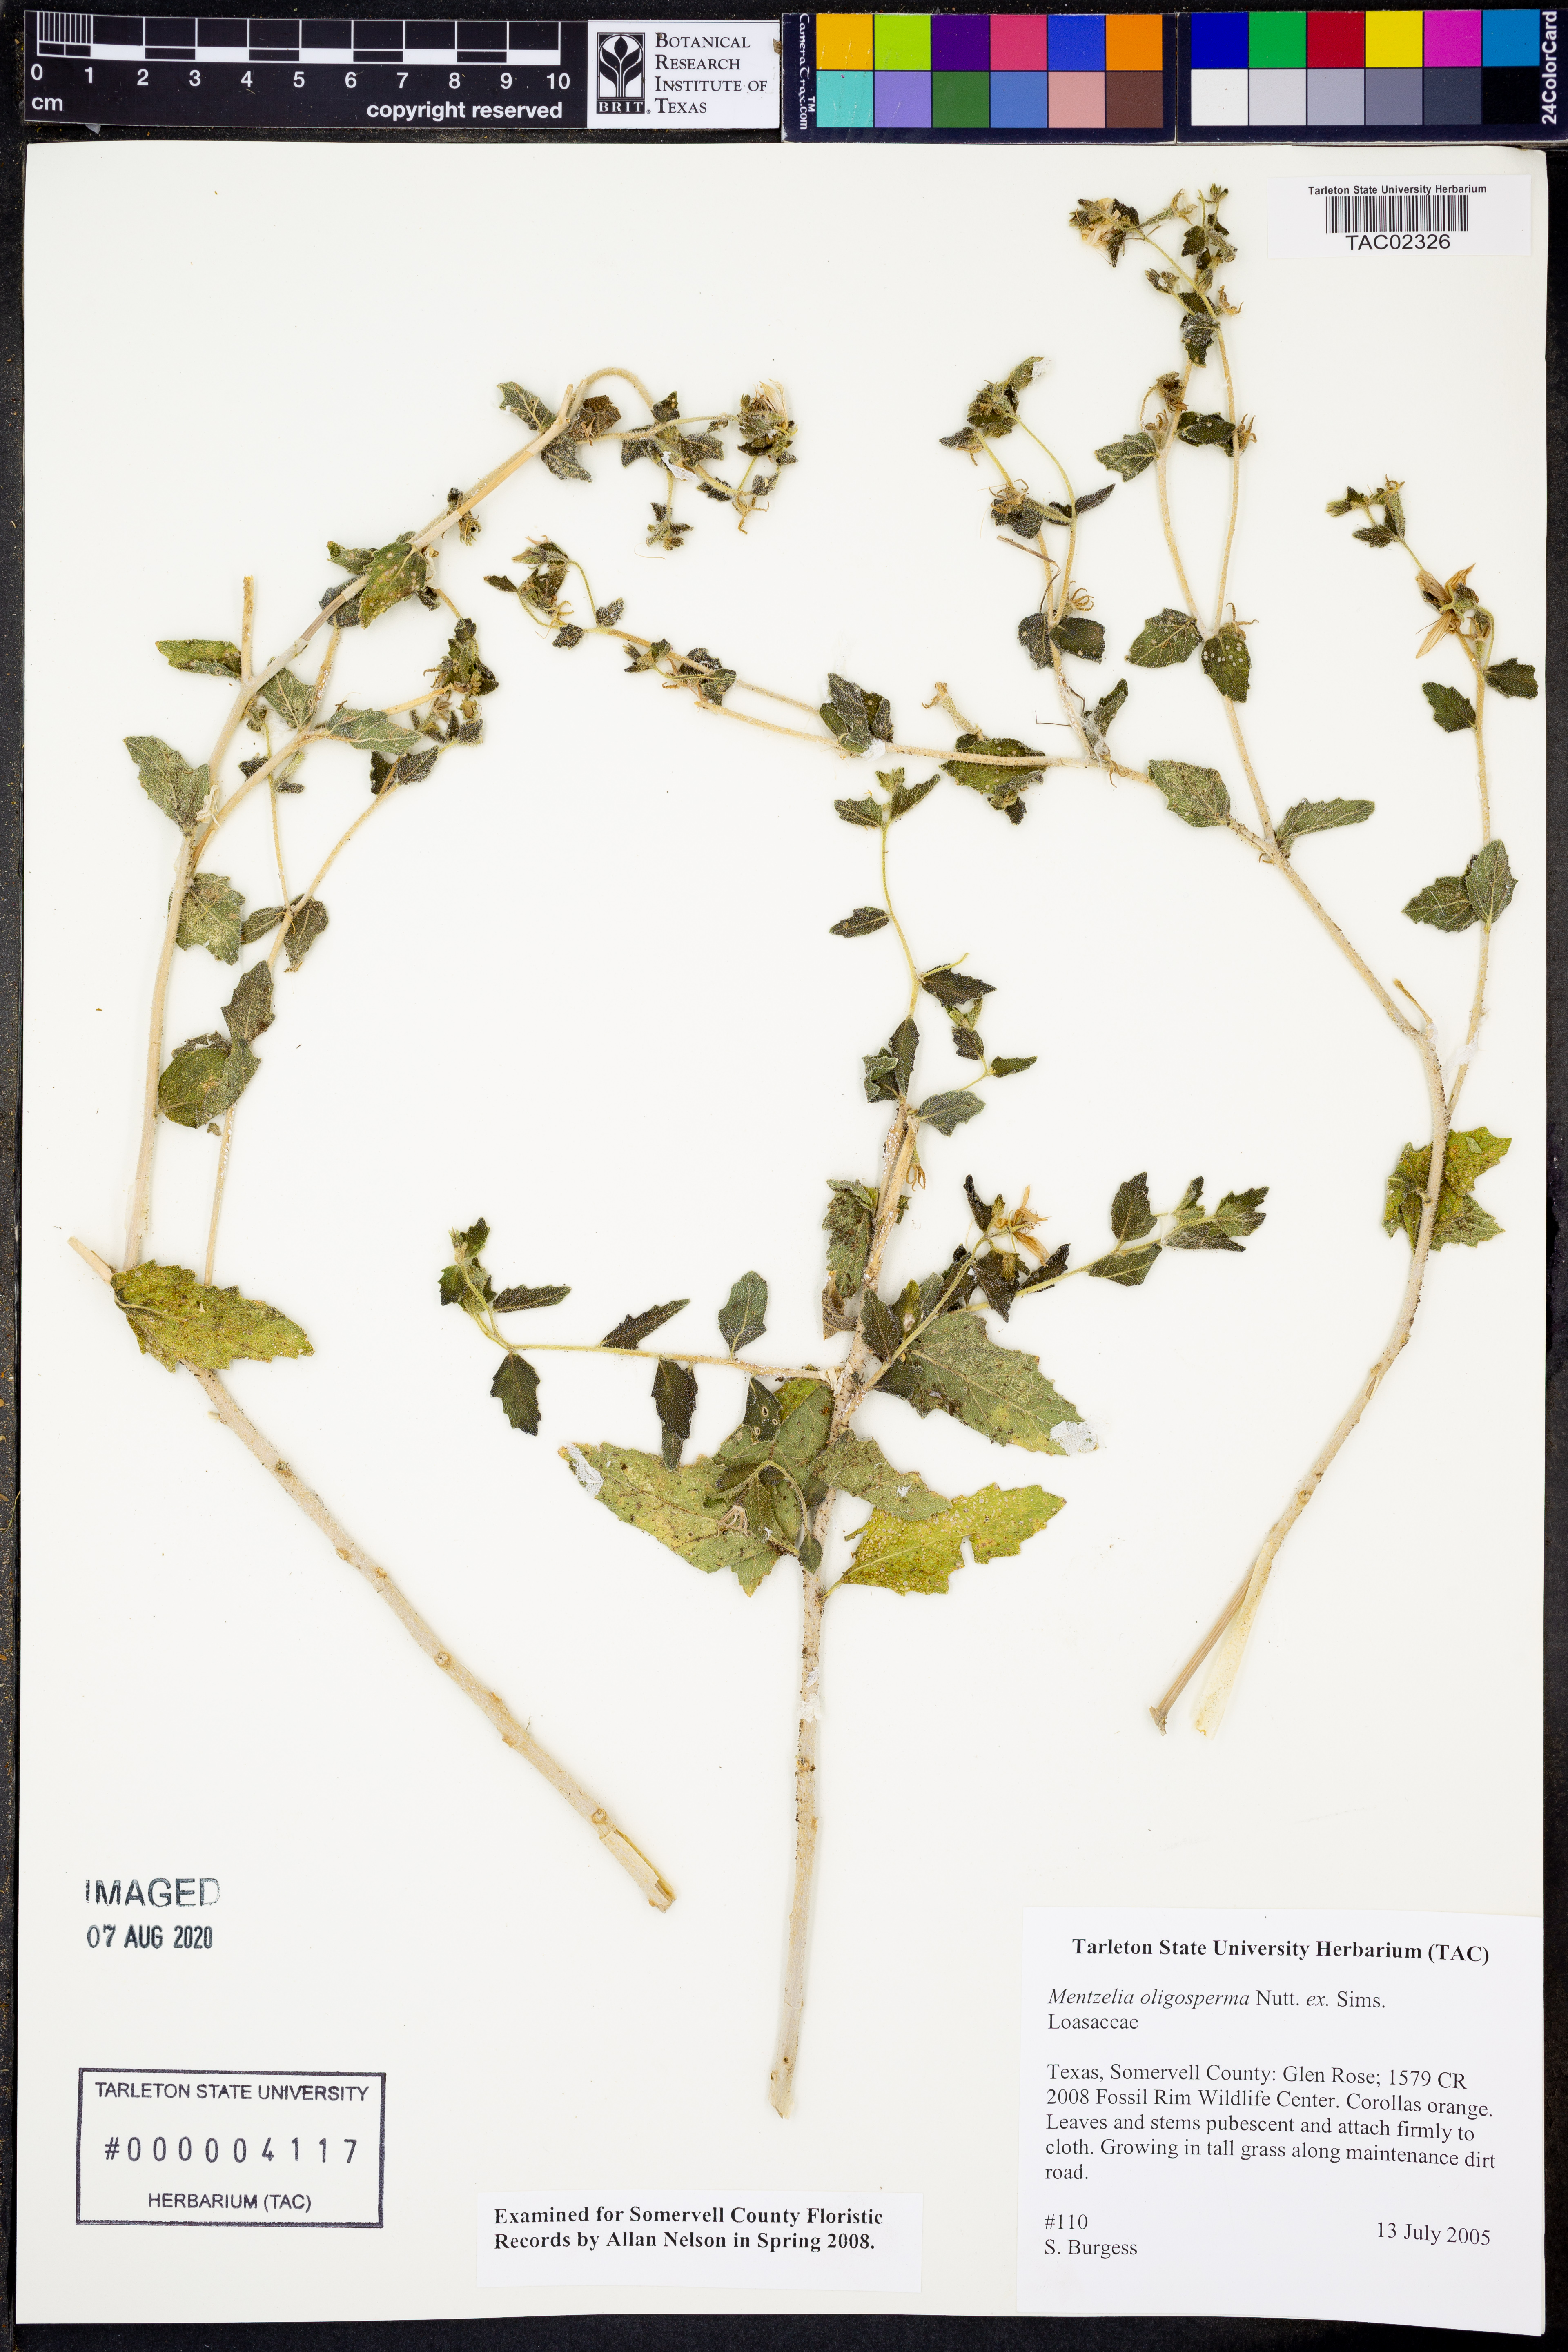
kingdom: Plantae
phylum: Tracheophyta
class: Magnoliopsida
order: Cornales
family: Loasaceae
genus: Mentzelia
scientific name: Mentzelia oligosperma
